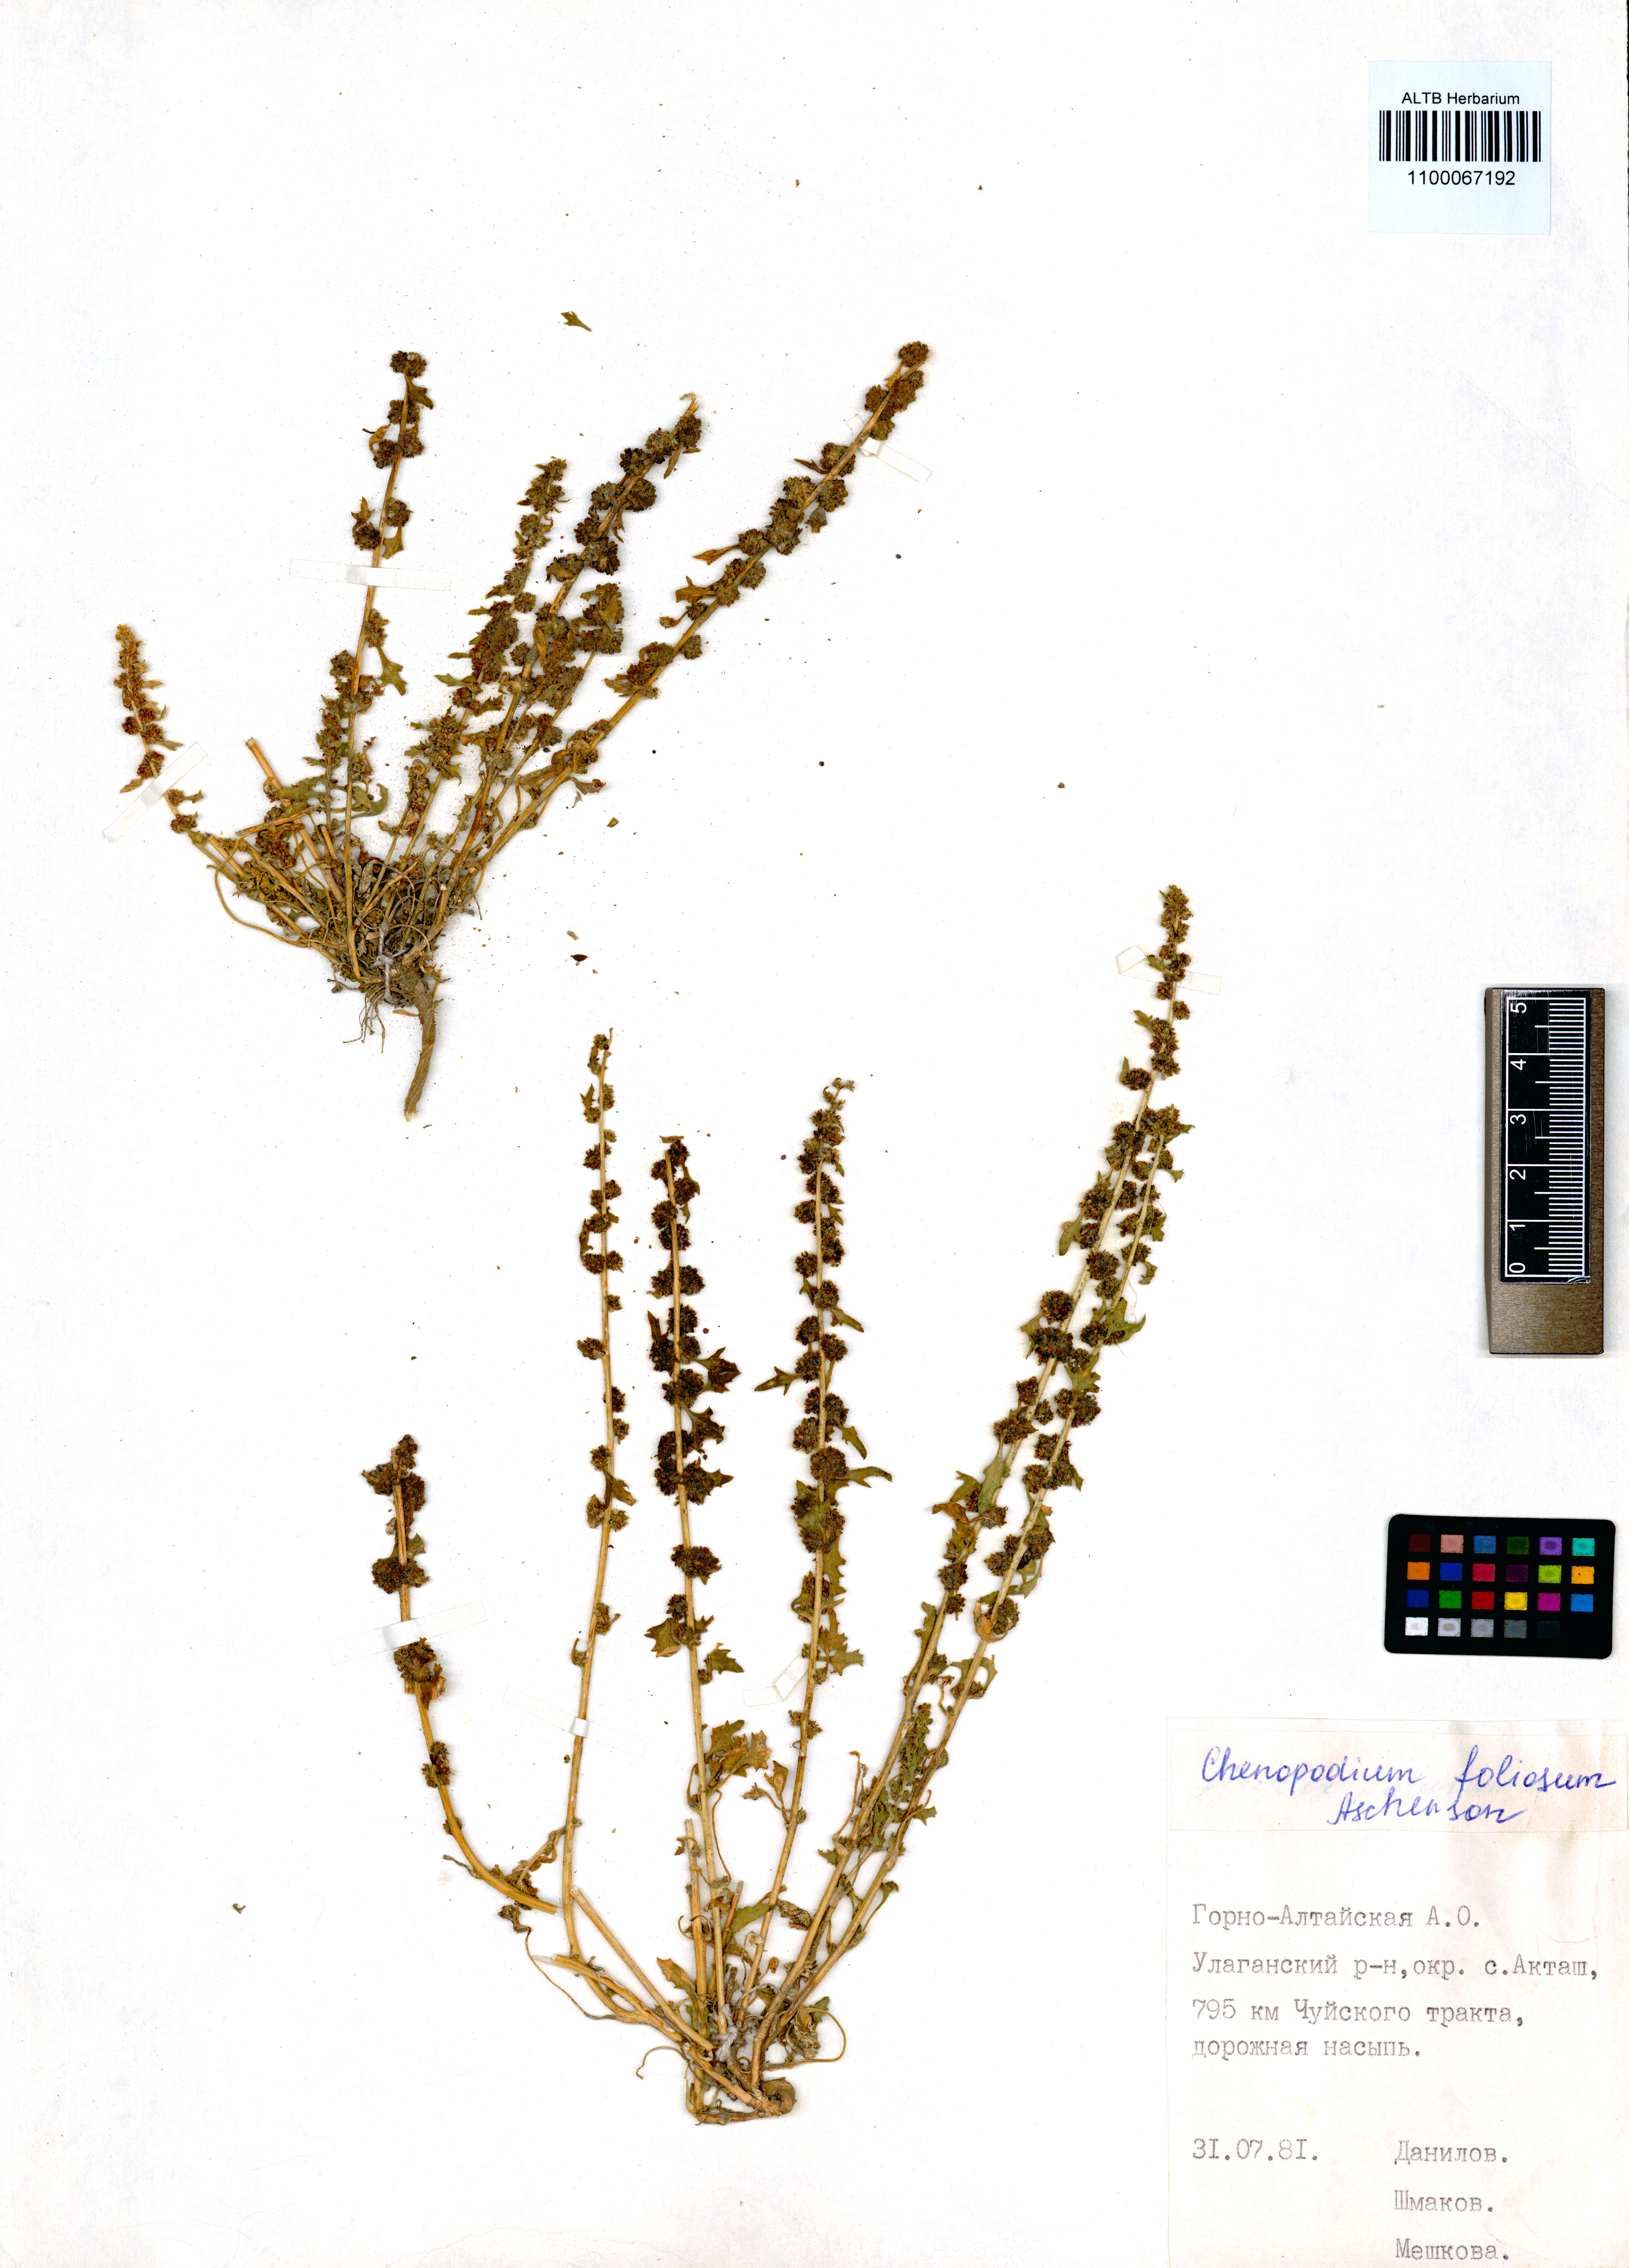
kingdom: Plantae
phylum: Tracheophyta
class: Magnoliopsida
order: Caryophyllales
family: Amaranthaceae
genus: Blitum
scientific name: Blitum virgatum
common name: Strawberry goosefoot
